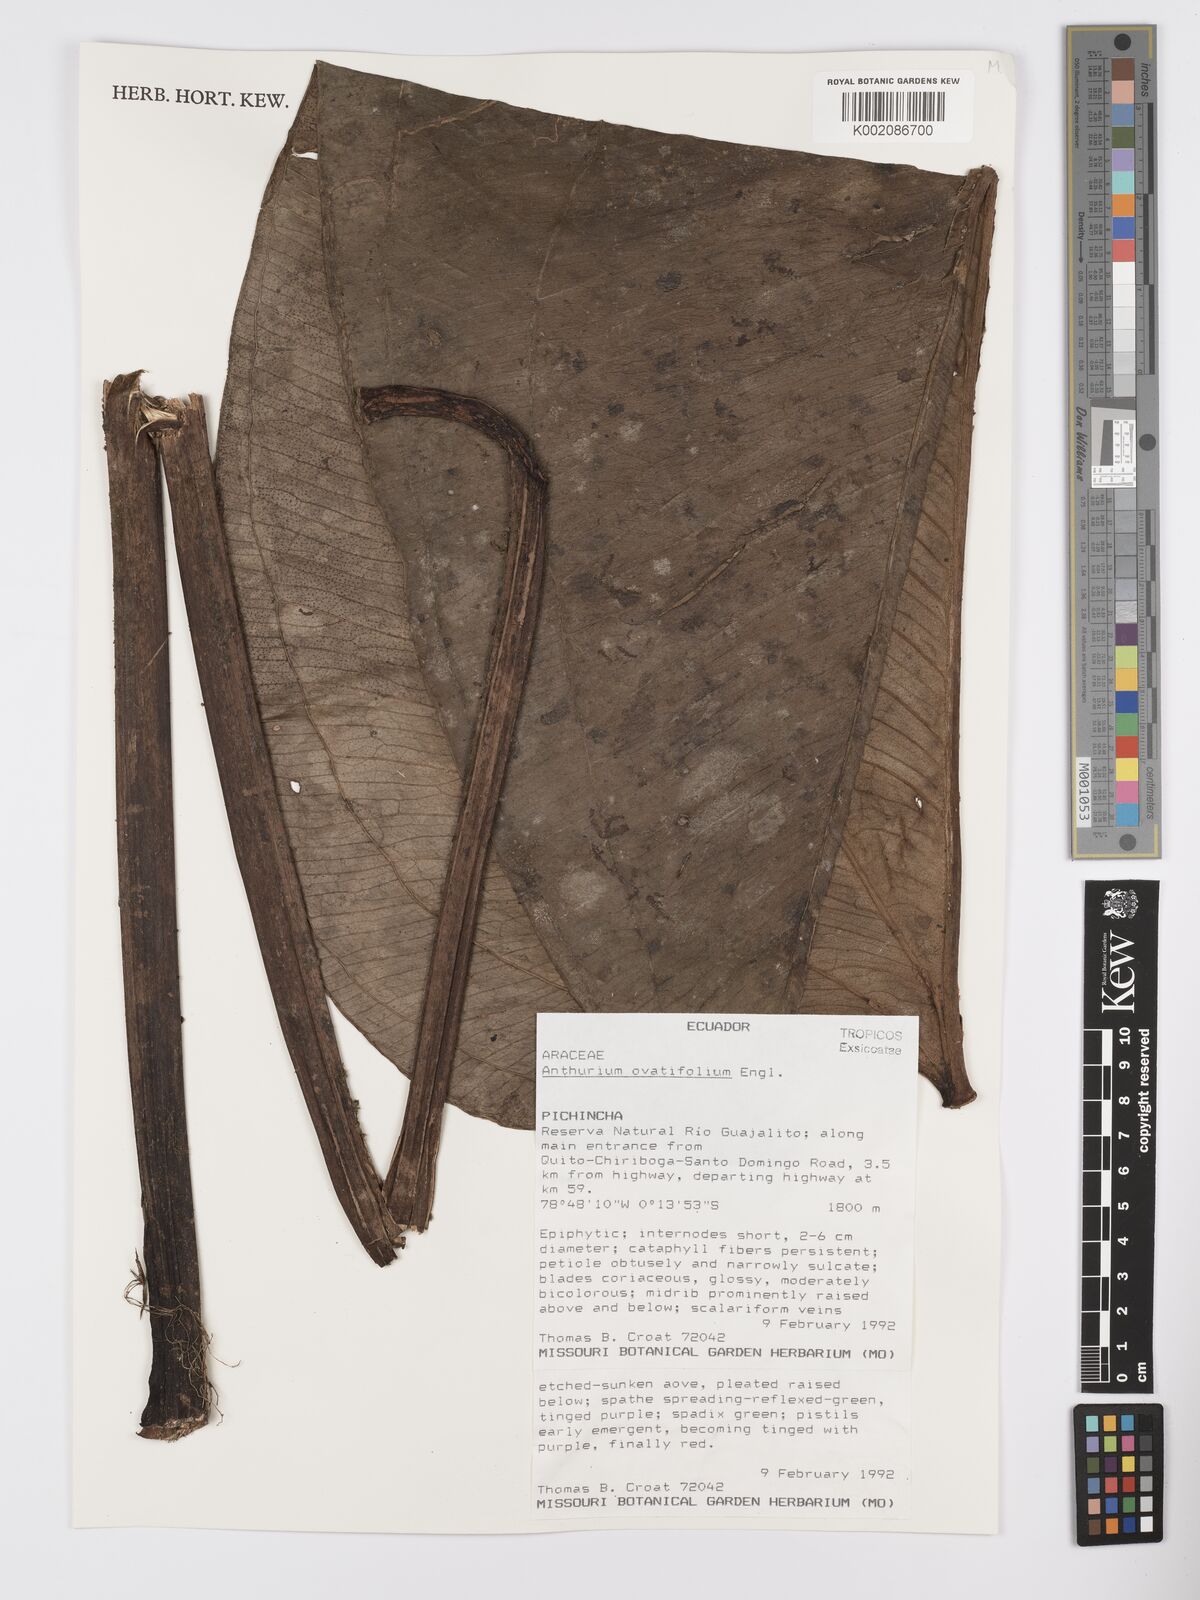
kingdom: Plantae
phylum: Tracheophyta
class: Liliopsida
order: Alismatales
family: Araceae
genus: Anthurium
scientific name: Anthurium ovatifolium
